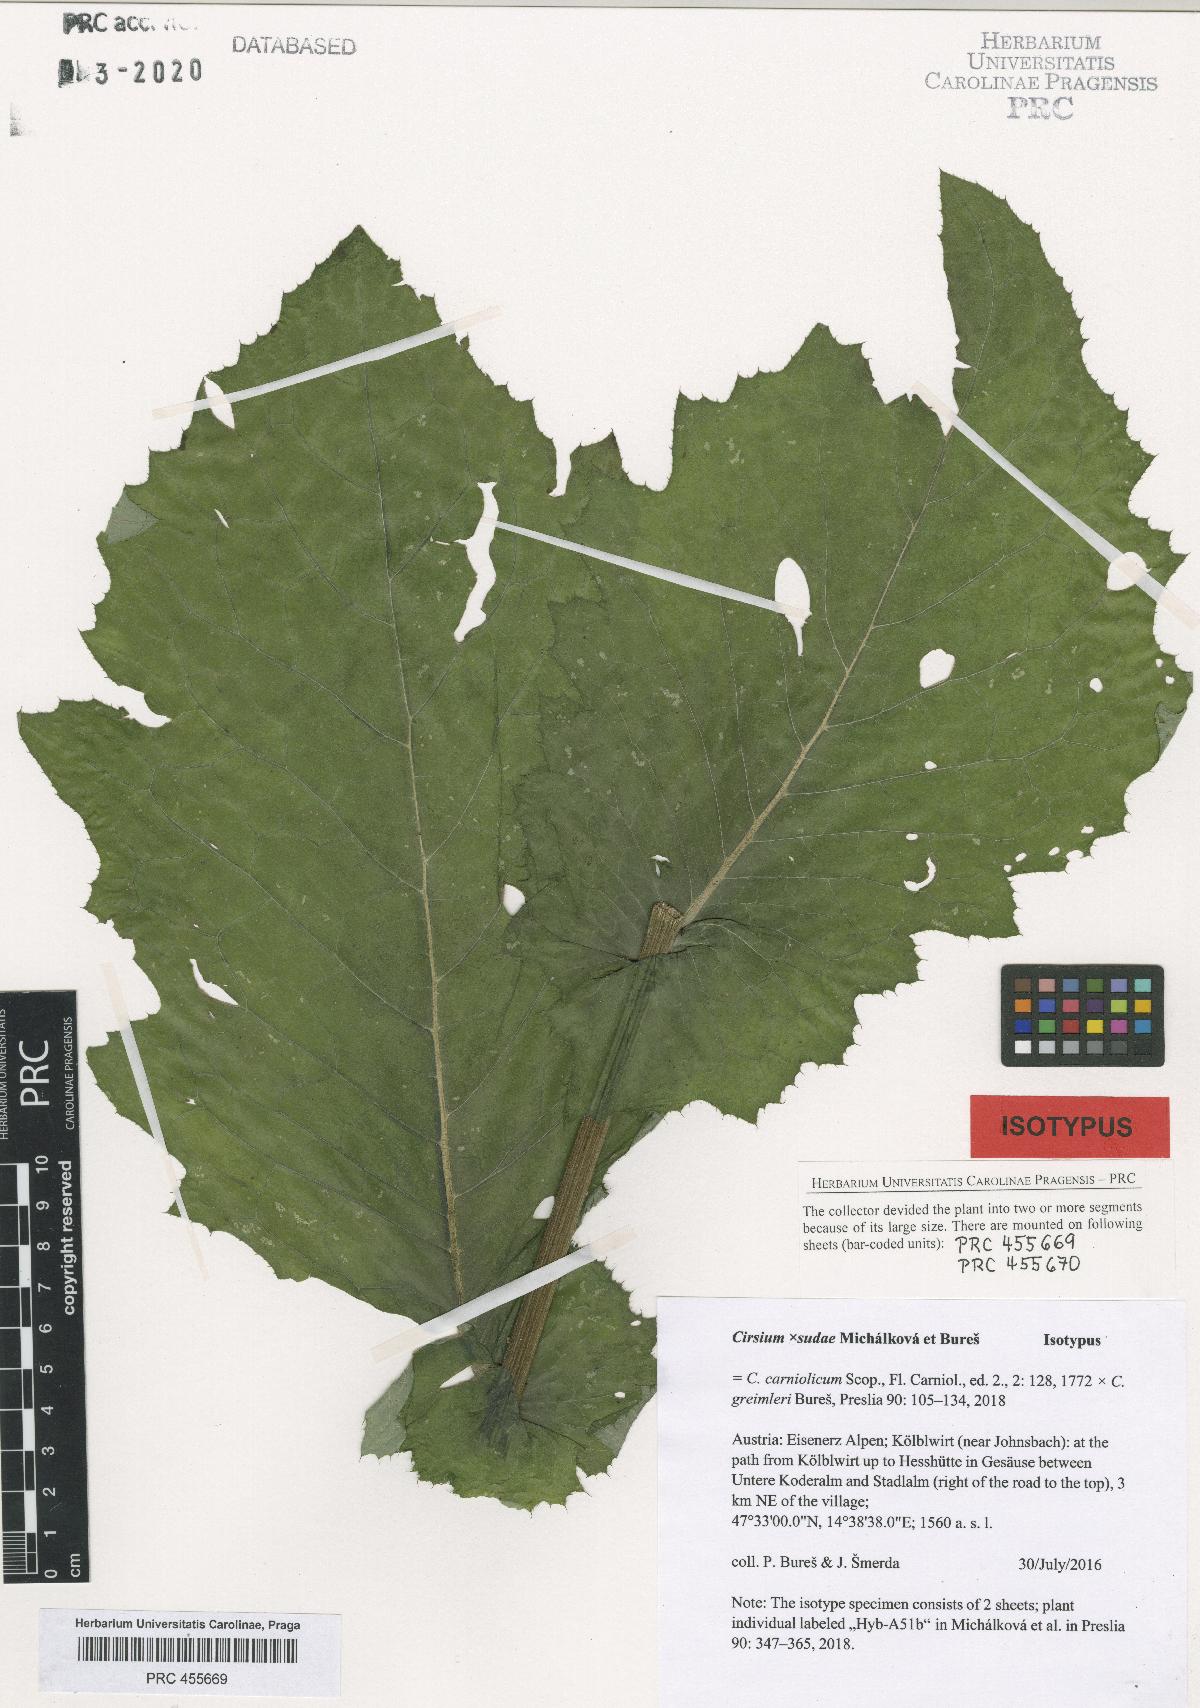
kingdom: Plantae
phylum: Tracheophyta
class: Magnoliopsida
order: Asterales
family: Asteraceae
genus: Cirsium
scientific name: Cirsium sudae
